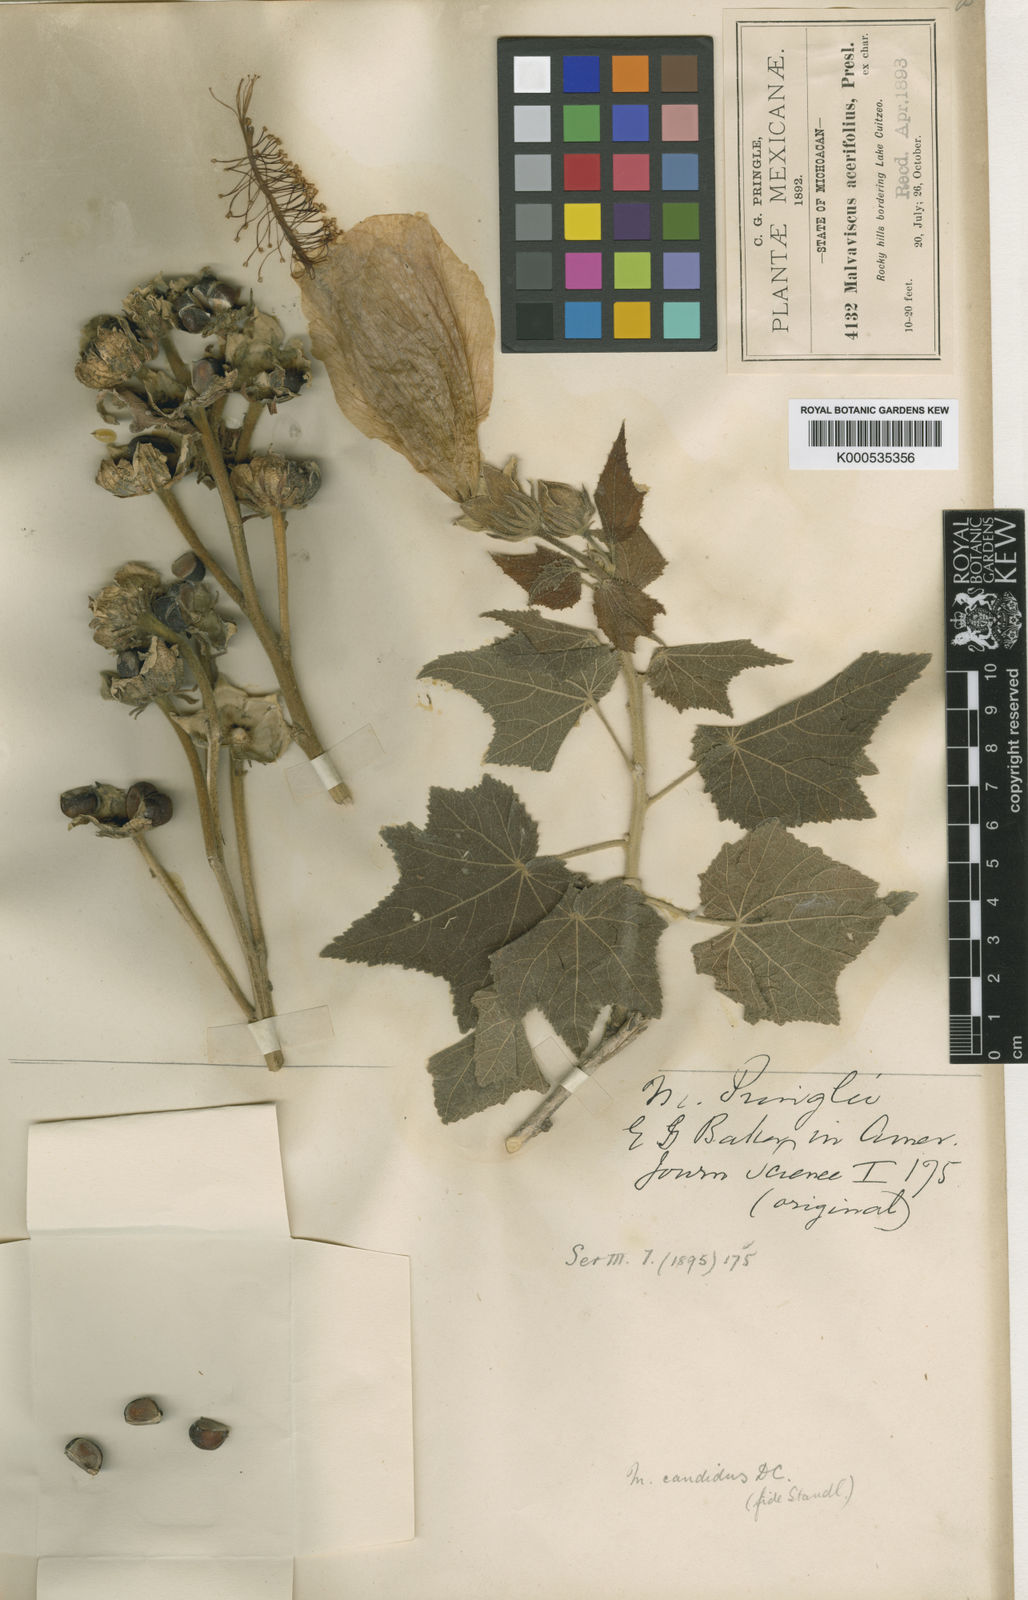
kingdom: Plantae
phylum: Tracheophyta
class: Magnoliopsida
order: Malvales
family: Malvaceae
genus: Pavonia
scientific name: Pavonia candida
